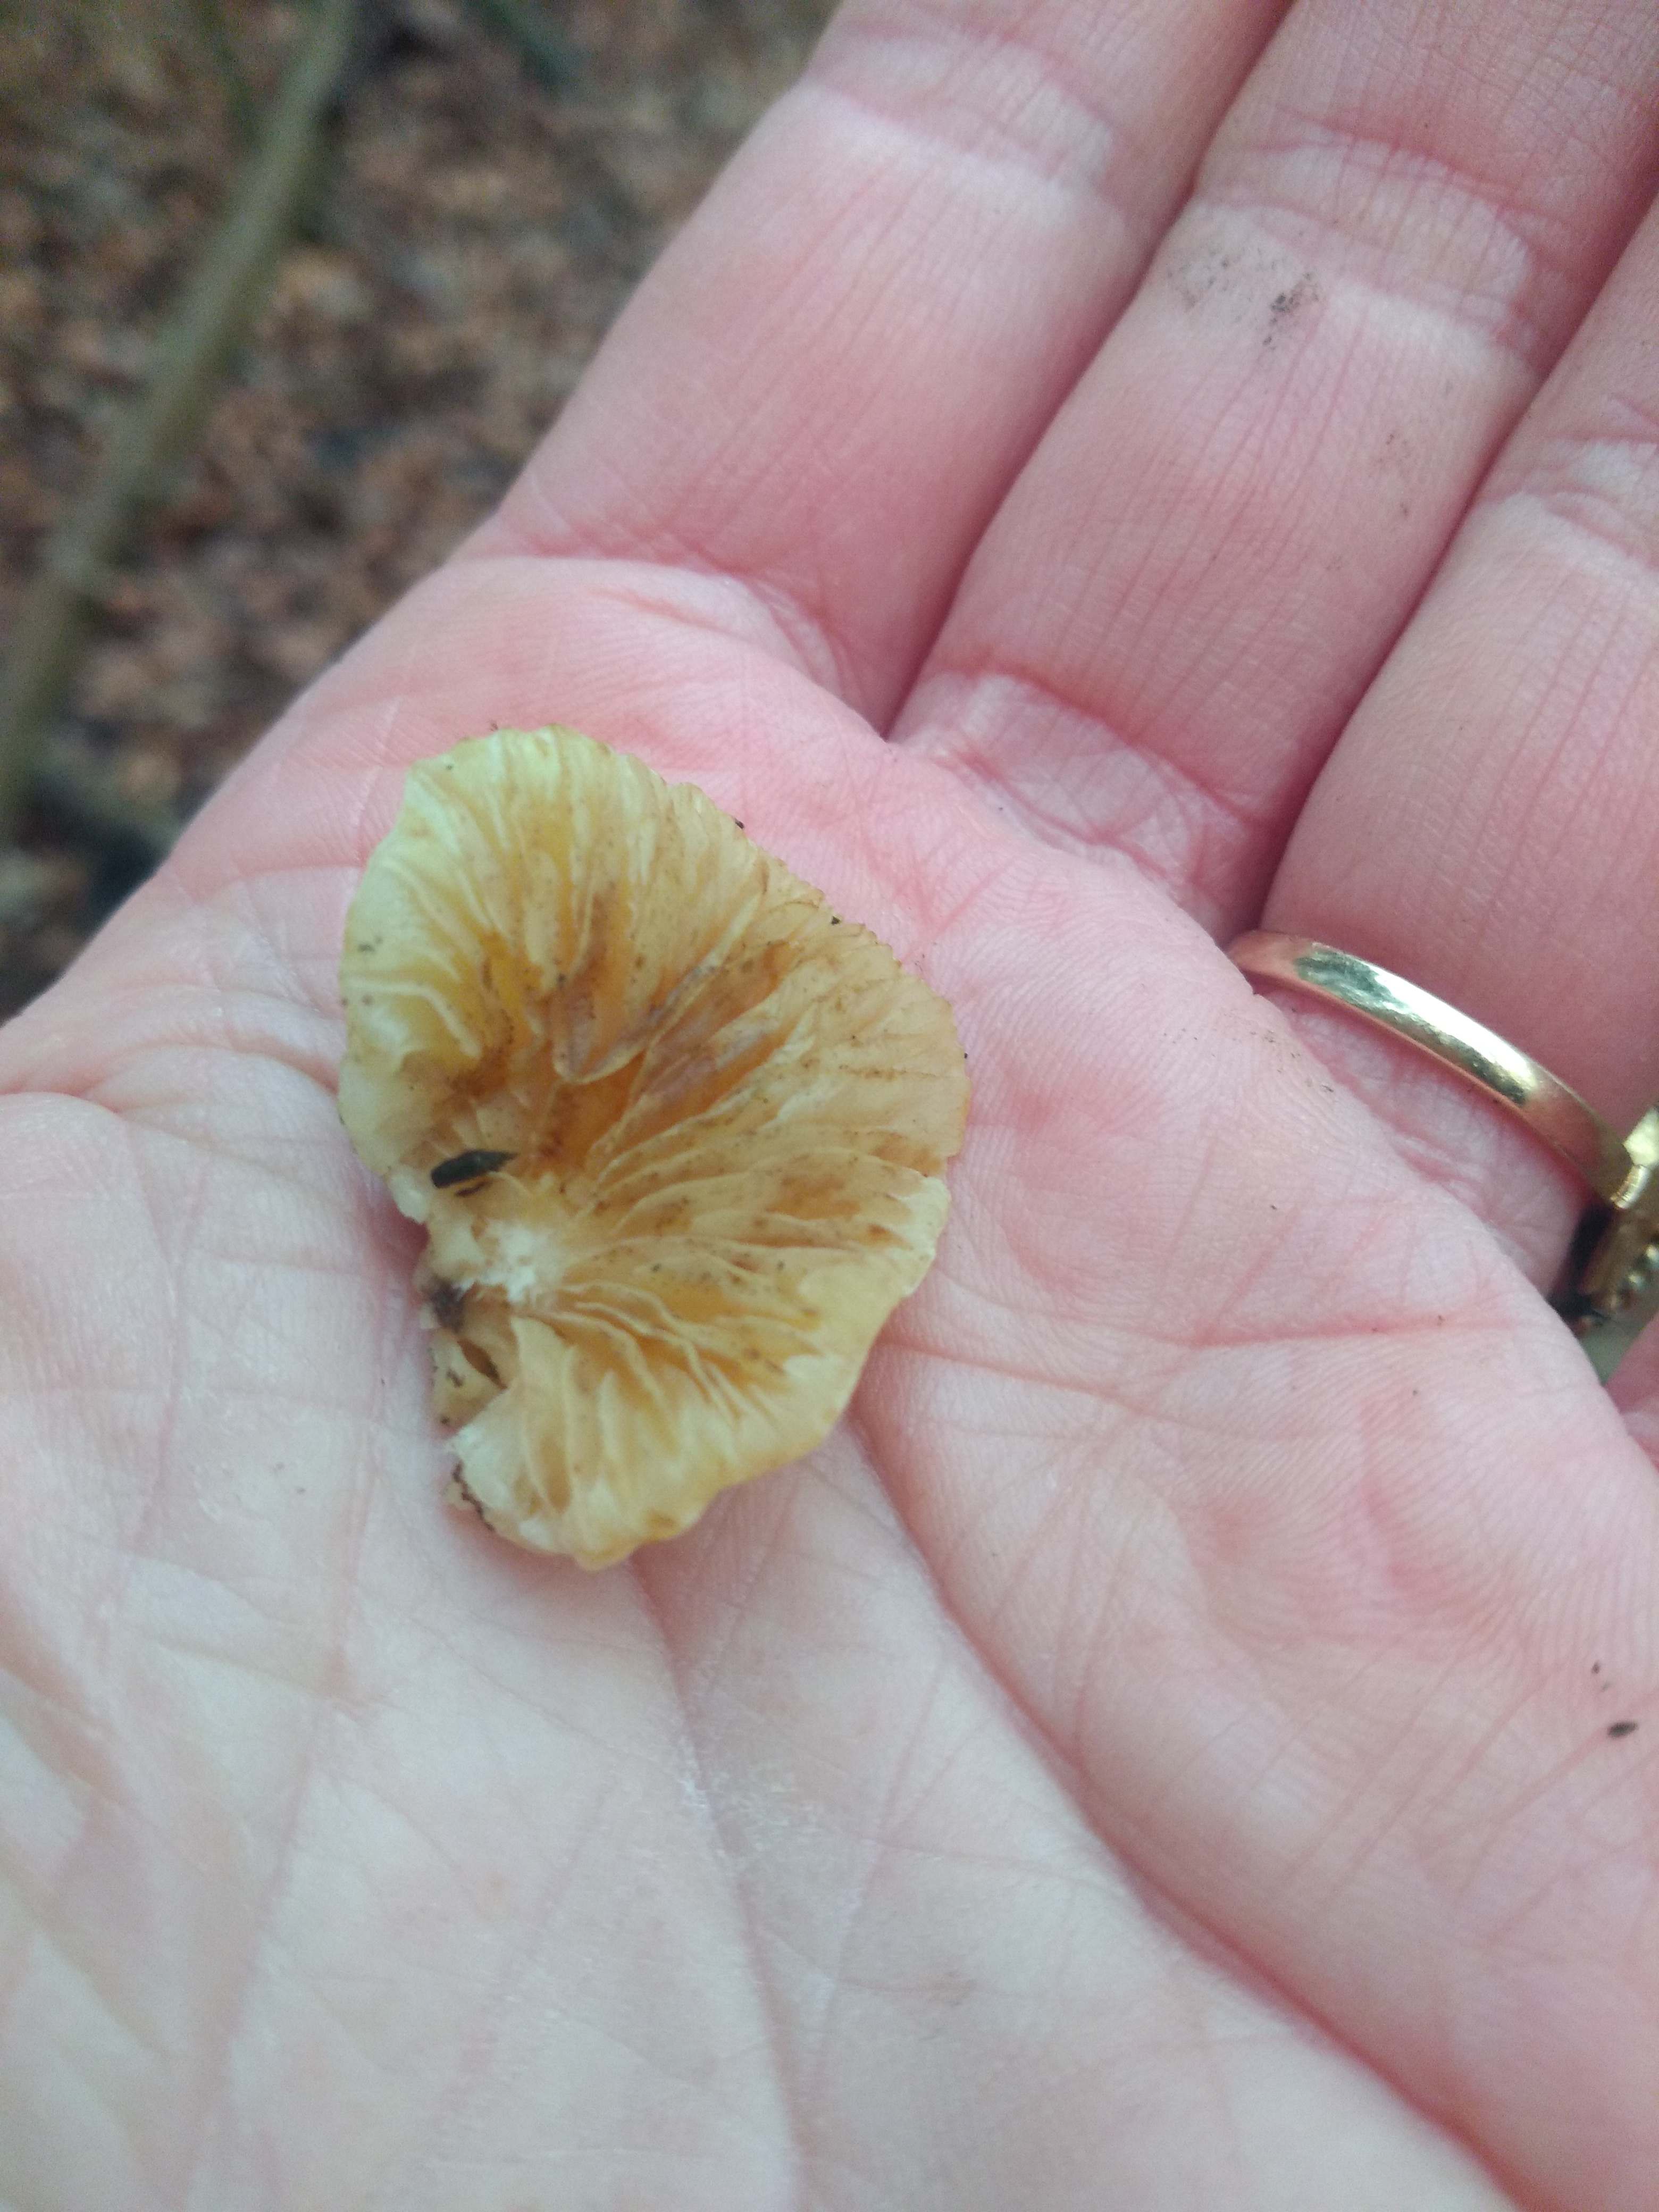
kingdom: Fungi
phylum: Basidiomycota
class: Agaricomycetes
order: Agaricales
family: Crepidotaceae
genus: Crepidotus
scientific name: Crepidotus
